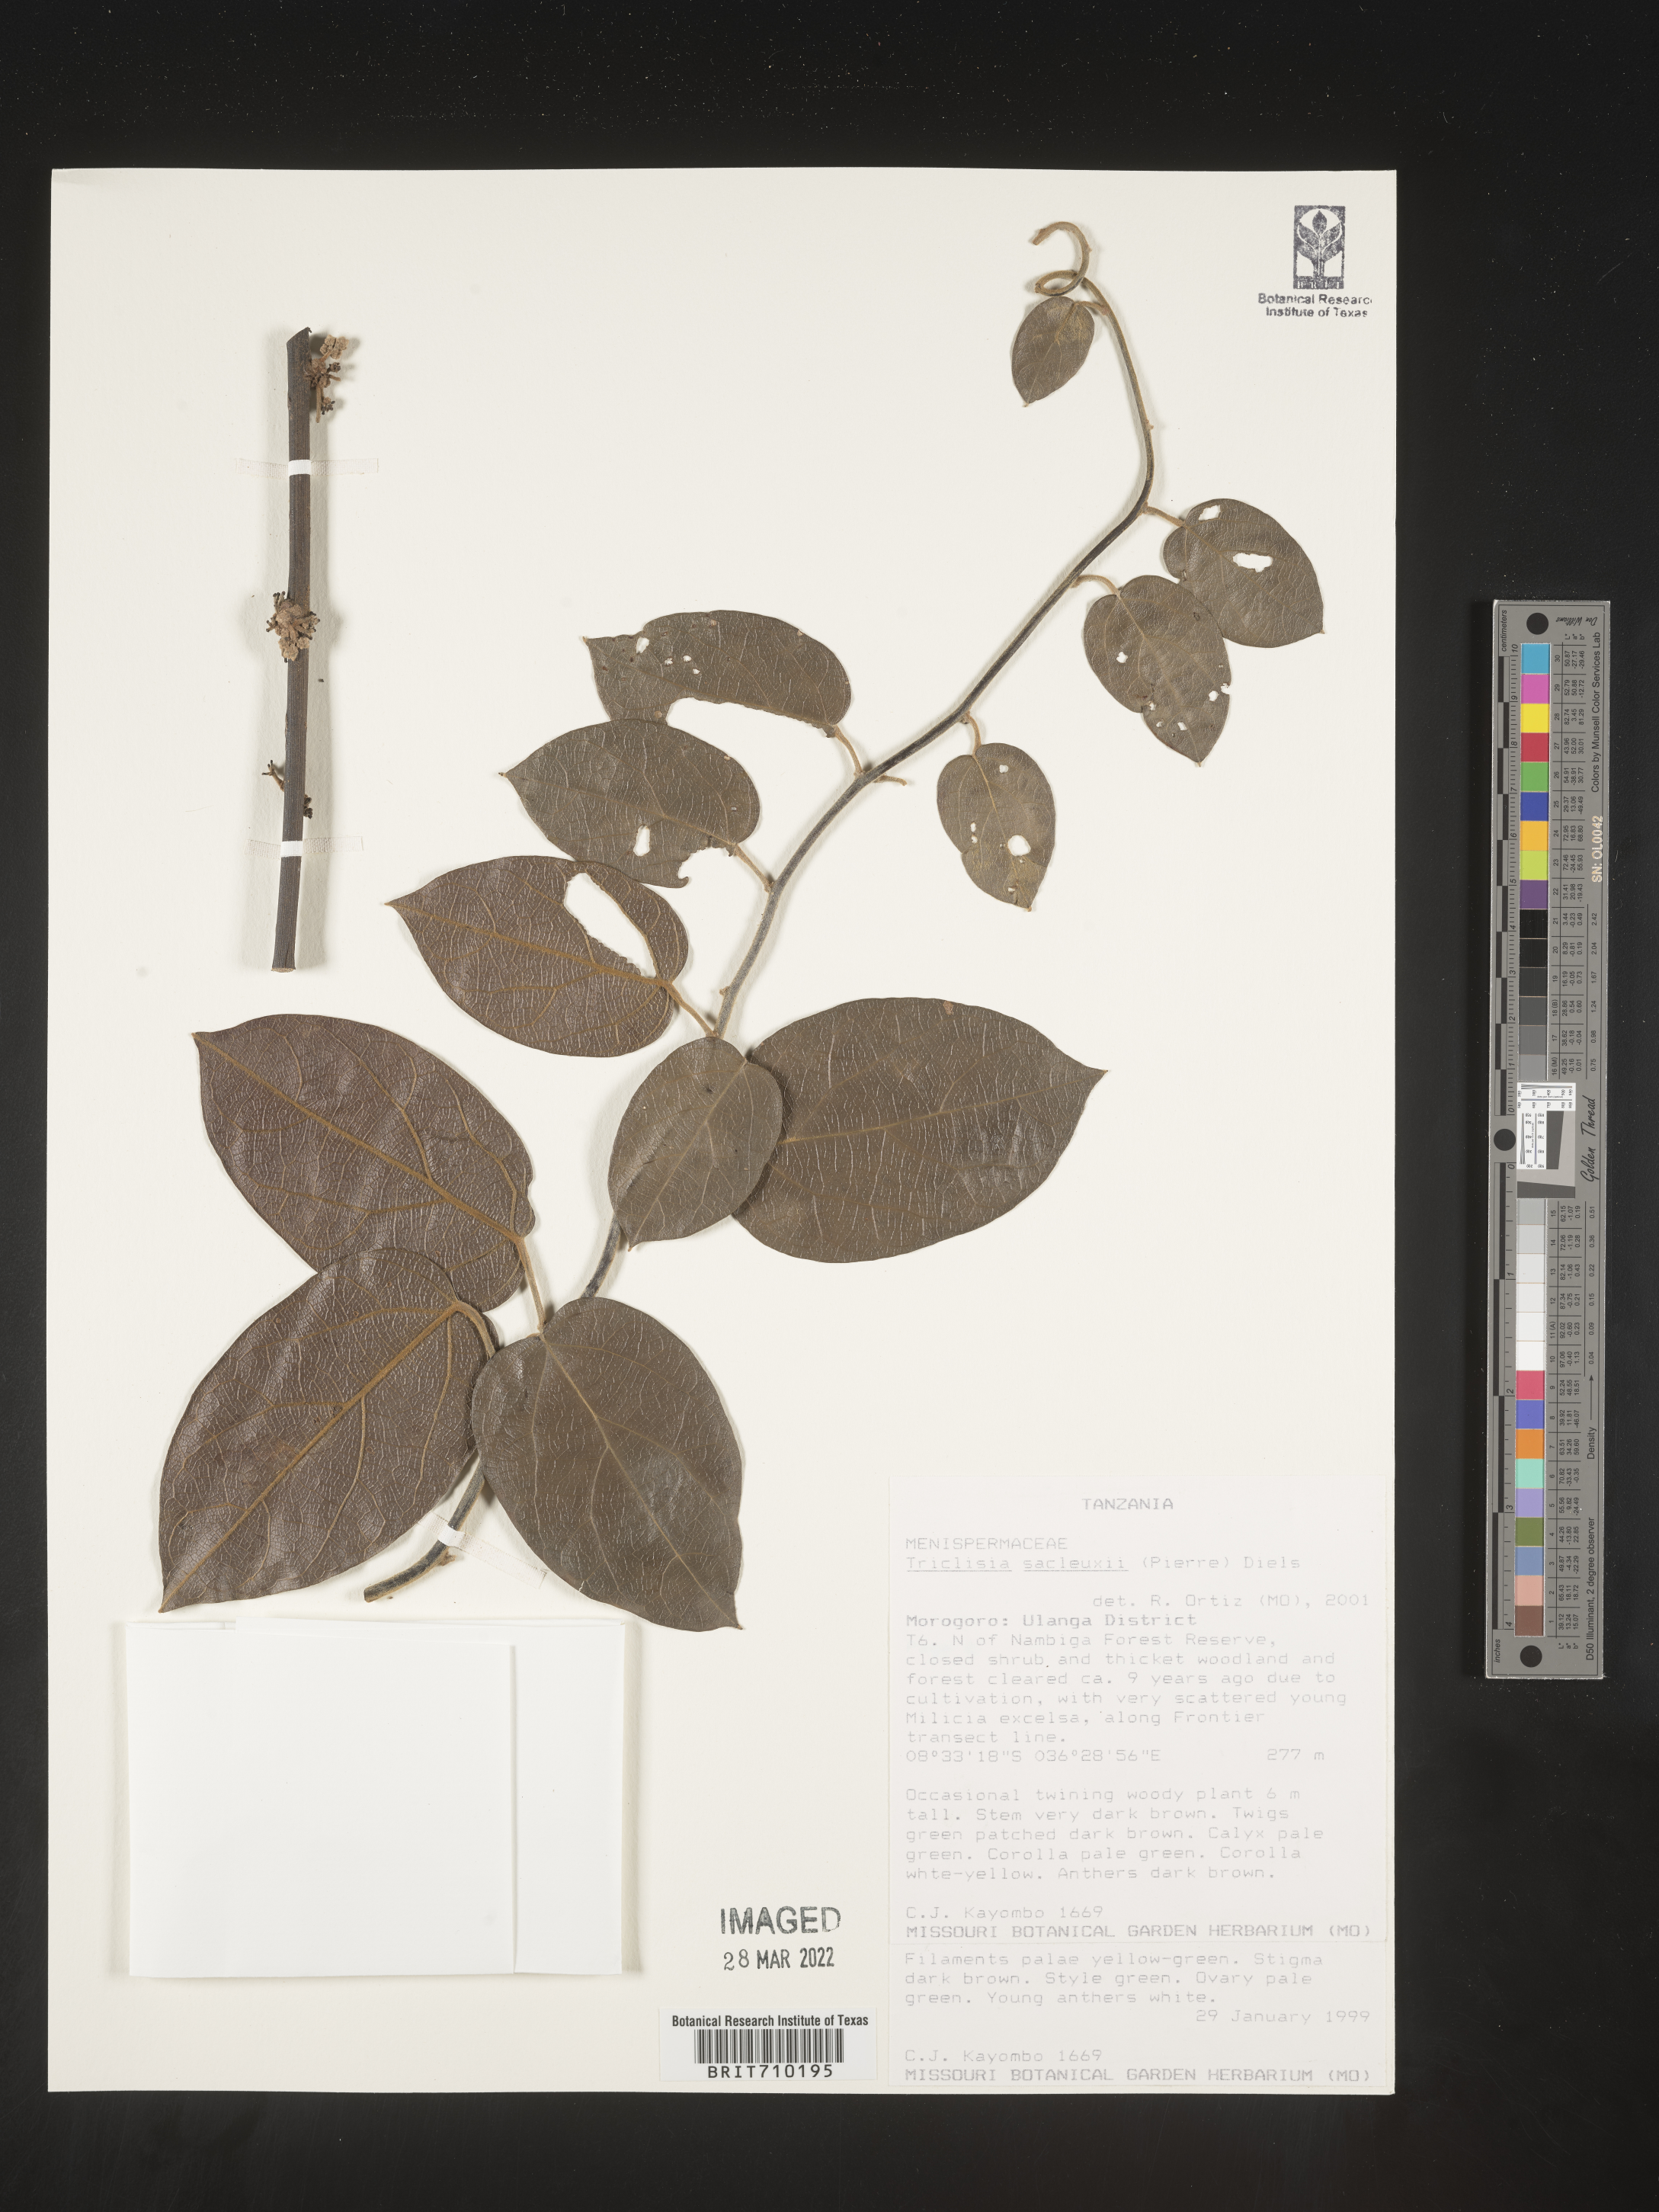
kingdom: Plantae
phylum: Tracheophyta
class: Magnoliopsida
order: Ranunculales
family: Menispermaceae
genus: Triclisia
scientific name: Triclisia
